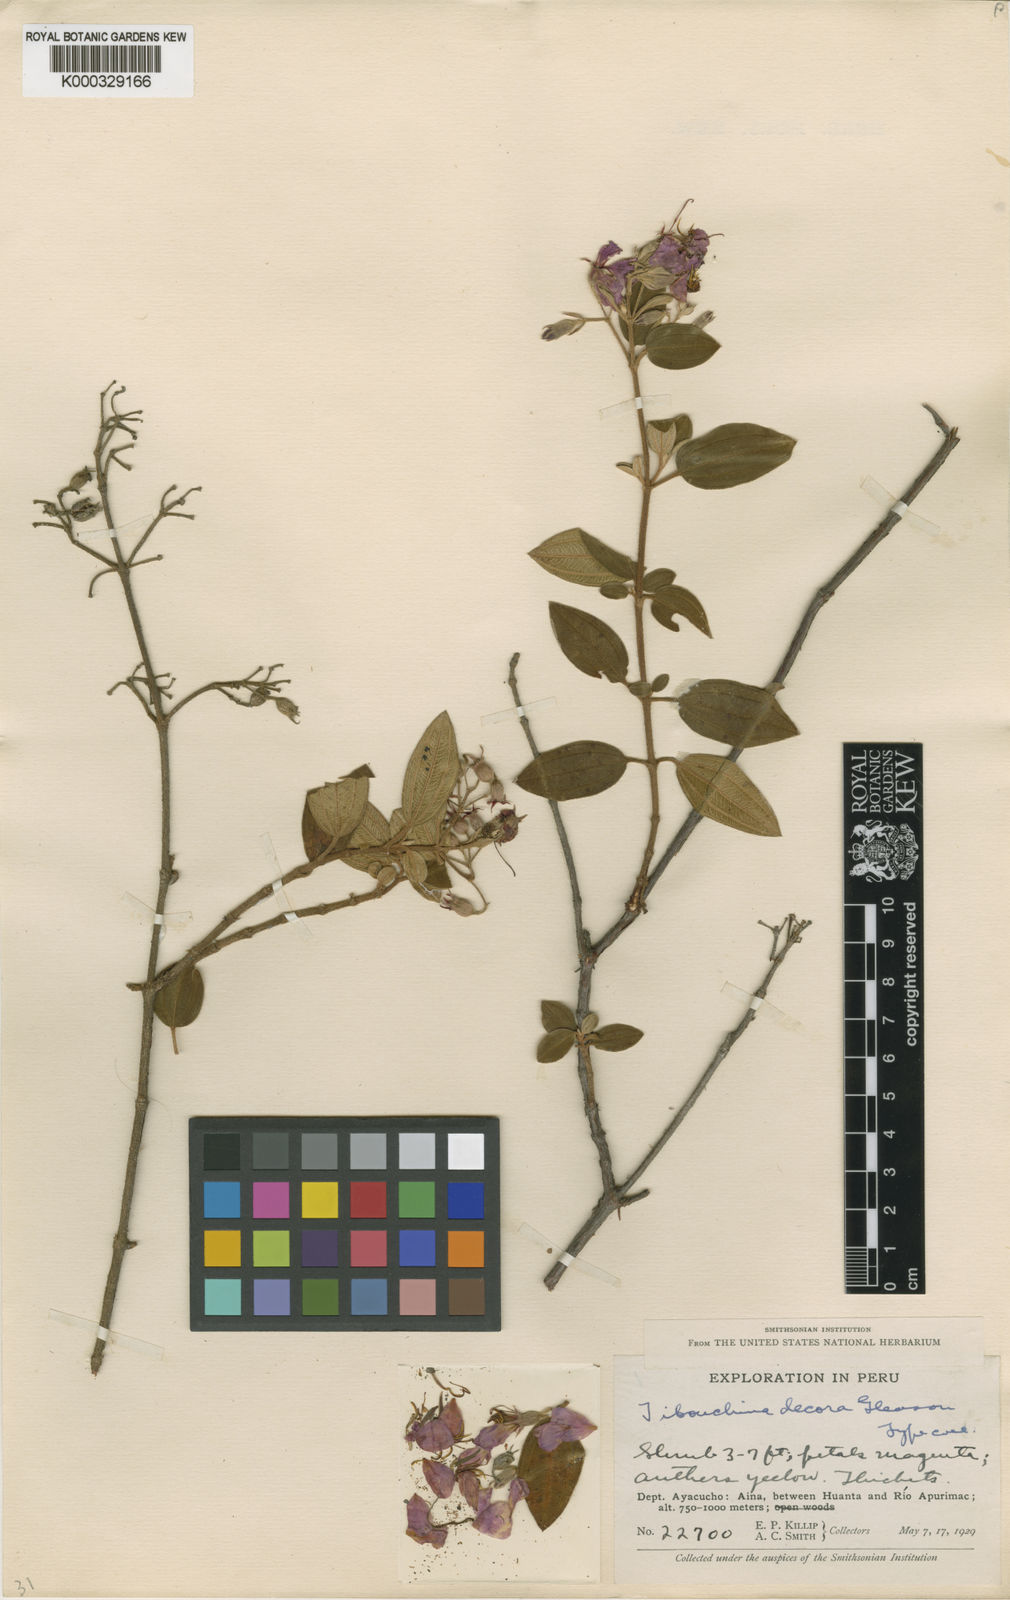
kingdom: Plantae
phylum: Tracheophyta
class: Magnoliopsida
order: Myrtales
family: Melastomataceae
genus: Chaetogastra
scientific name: Chaetogastra decora
